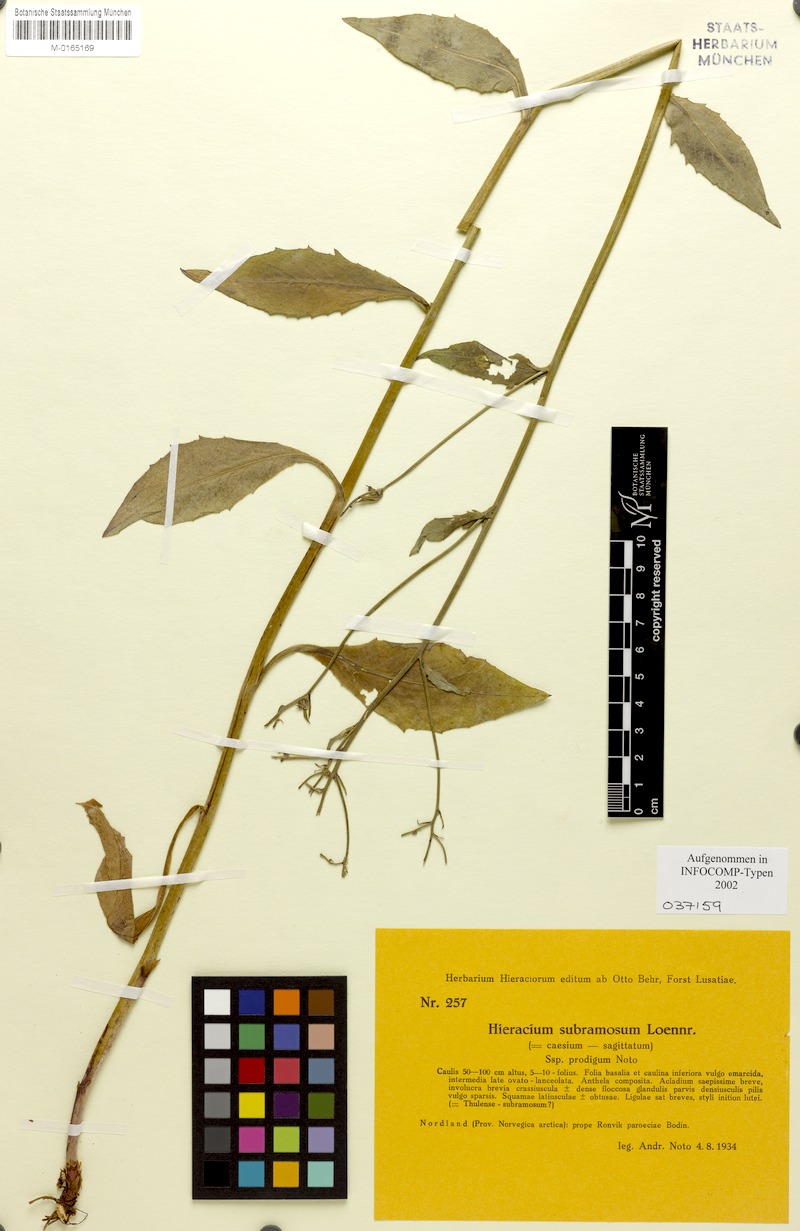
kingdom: Plantae
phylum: Tracheophyta
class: Magnoliopsida
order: Asterales
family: Asteraceae
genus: Hieracium
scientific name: Hieracium subramosum
